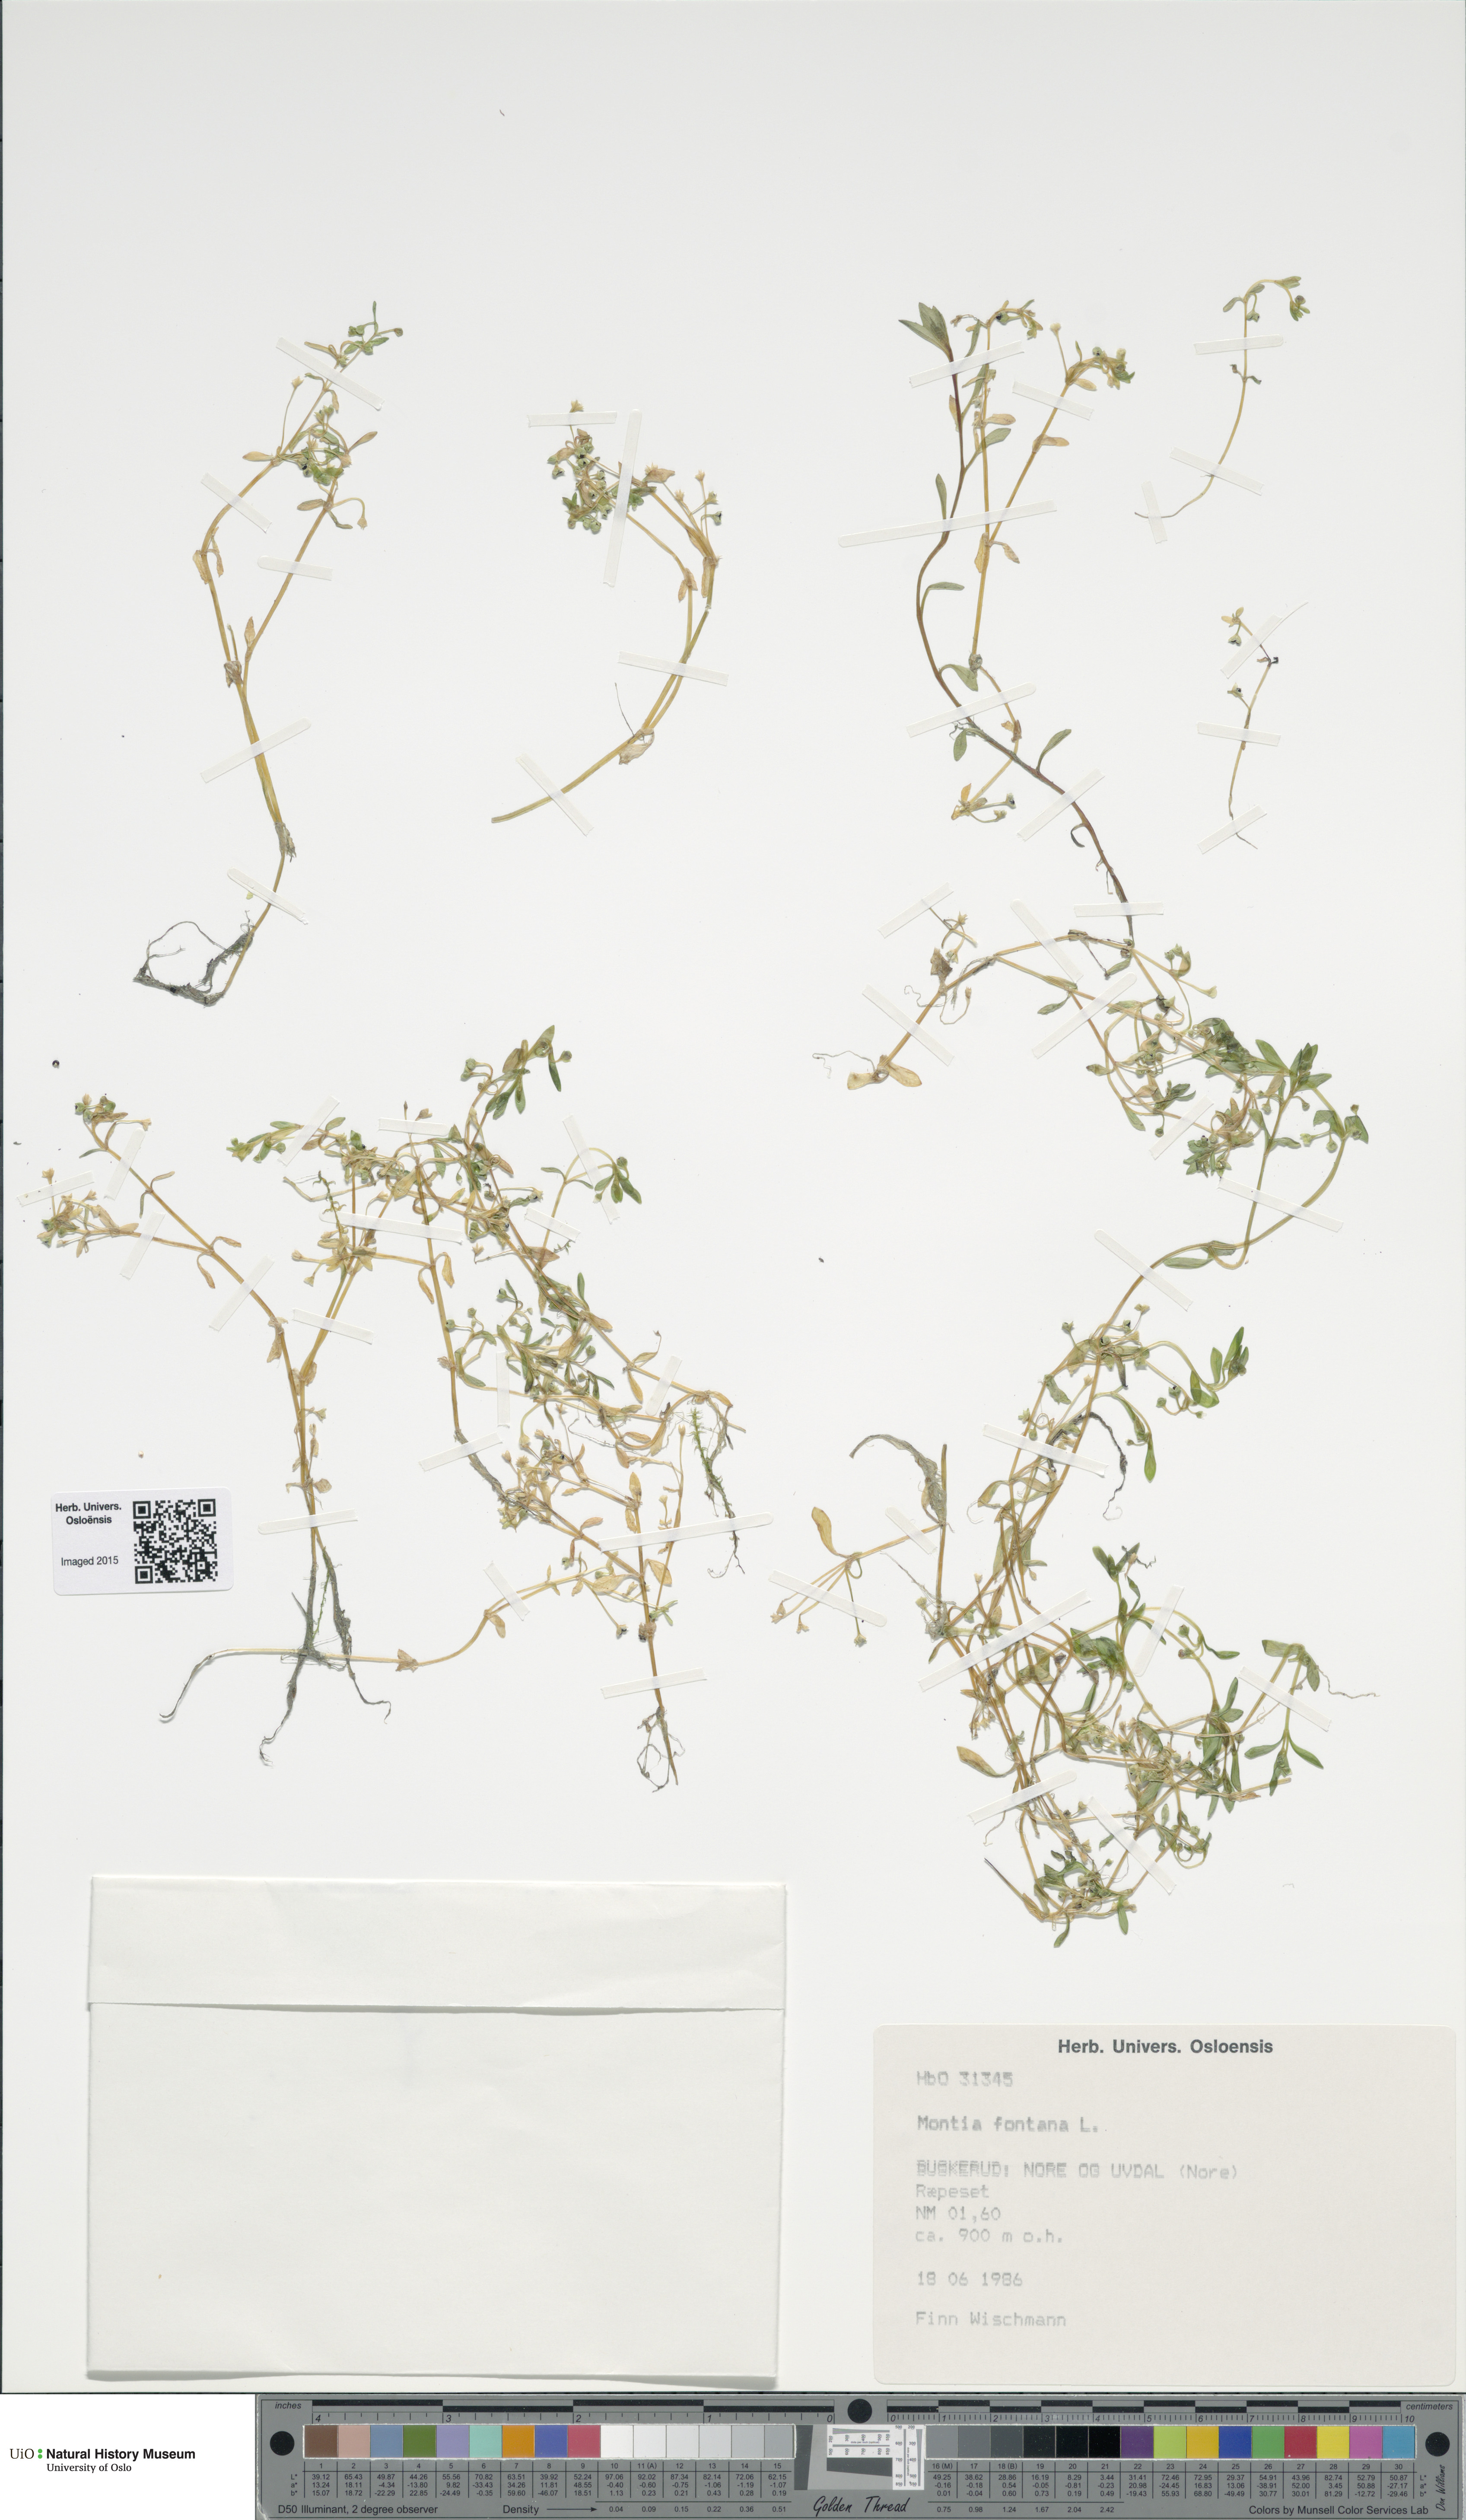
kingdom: Plantae
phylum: Tracheophyta
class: Magnoliopsida
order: Caryophyllales
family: Montiaceae
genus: Montia
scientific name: Montia fontana
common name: Blinks
